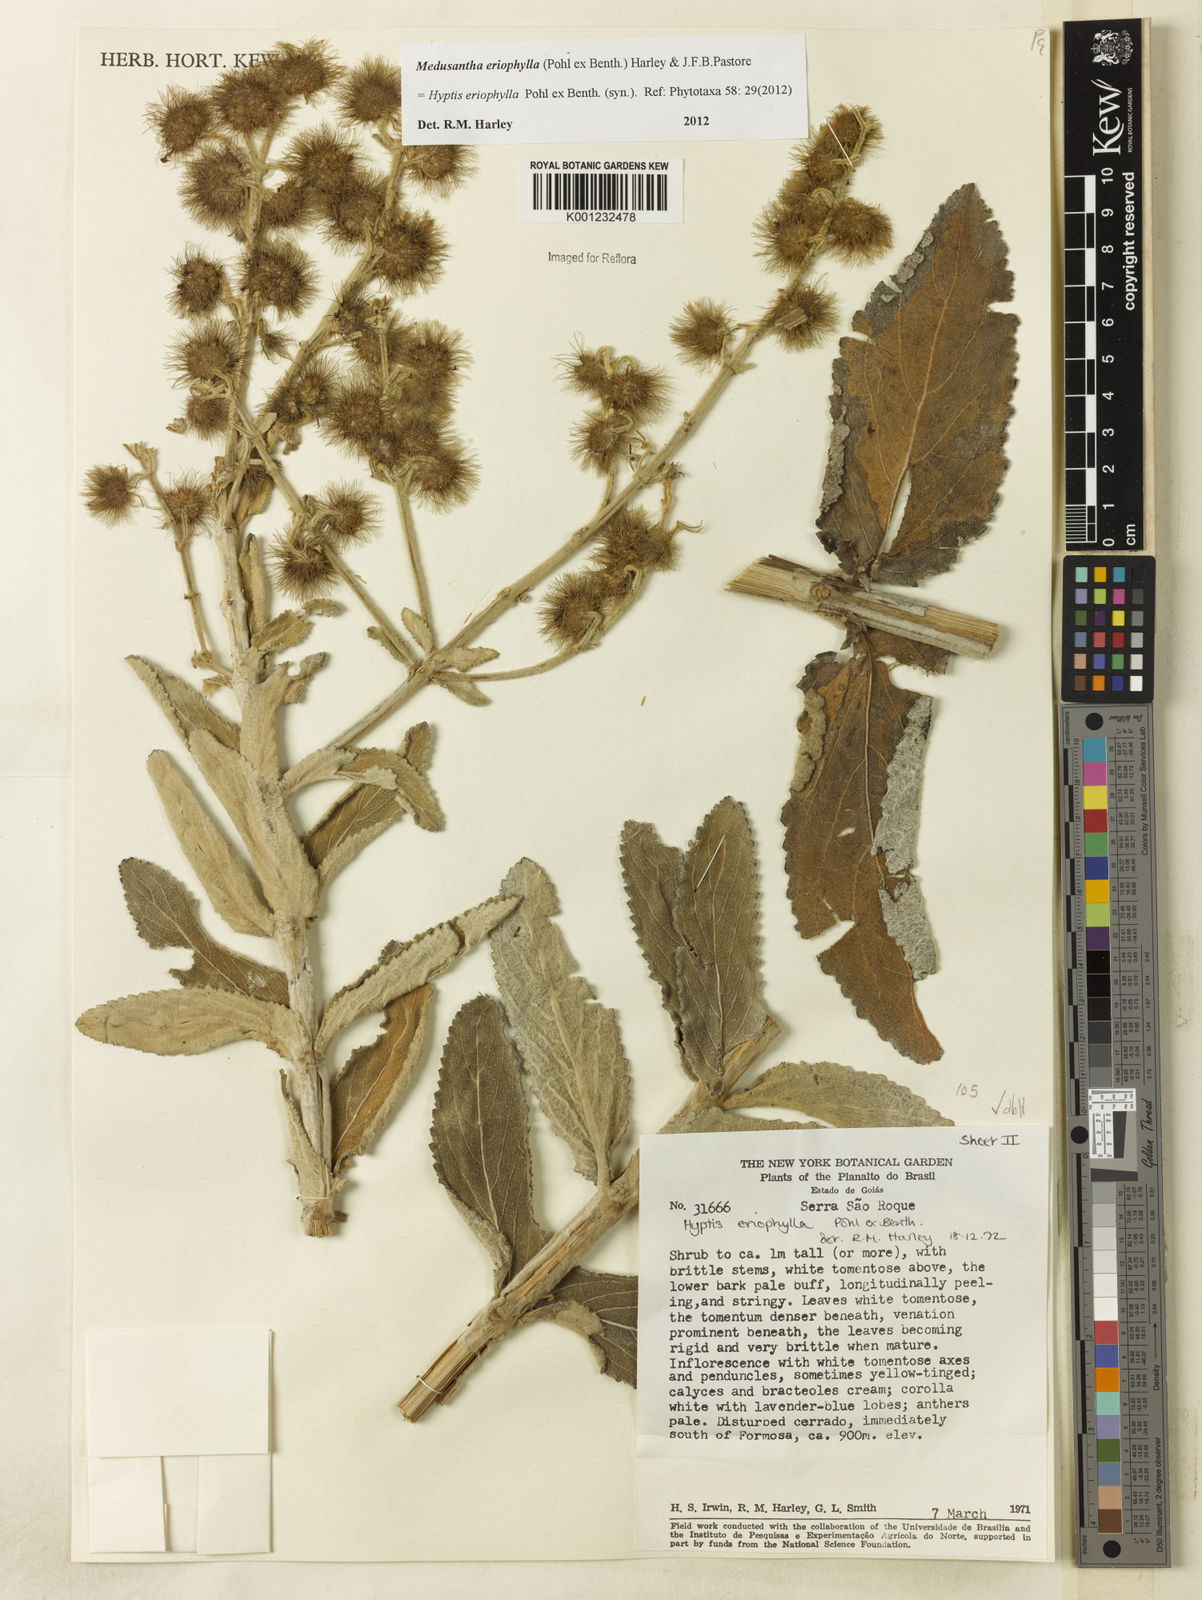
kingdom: Plantae
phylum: Tracheophyta
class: Magnoliopsida
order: Lamiales
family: Lamiaceae
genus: Medusantha
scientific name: Medusantha eriophylla
